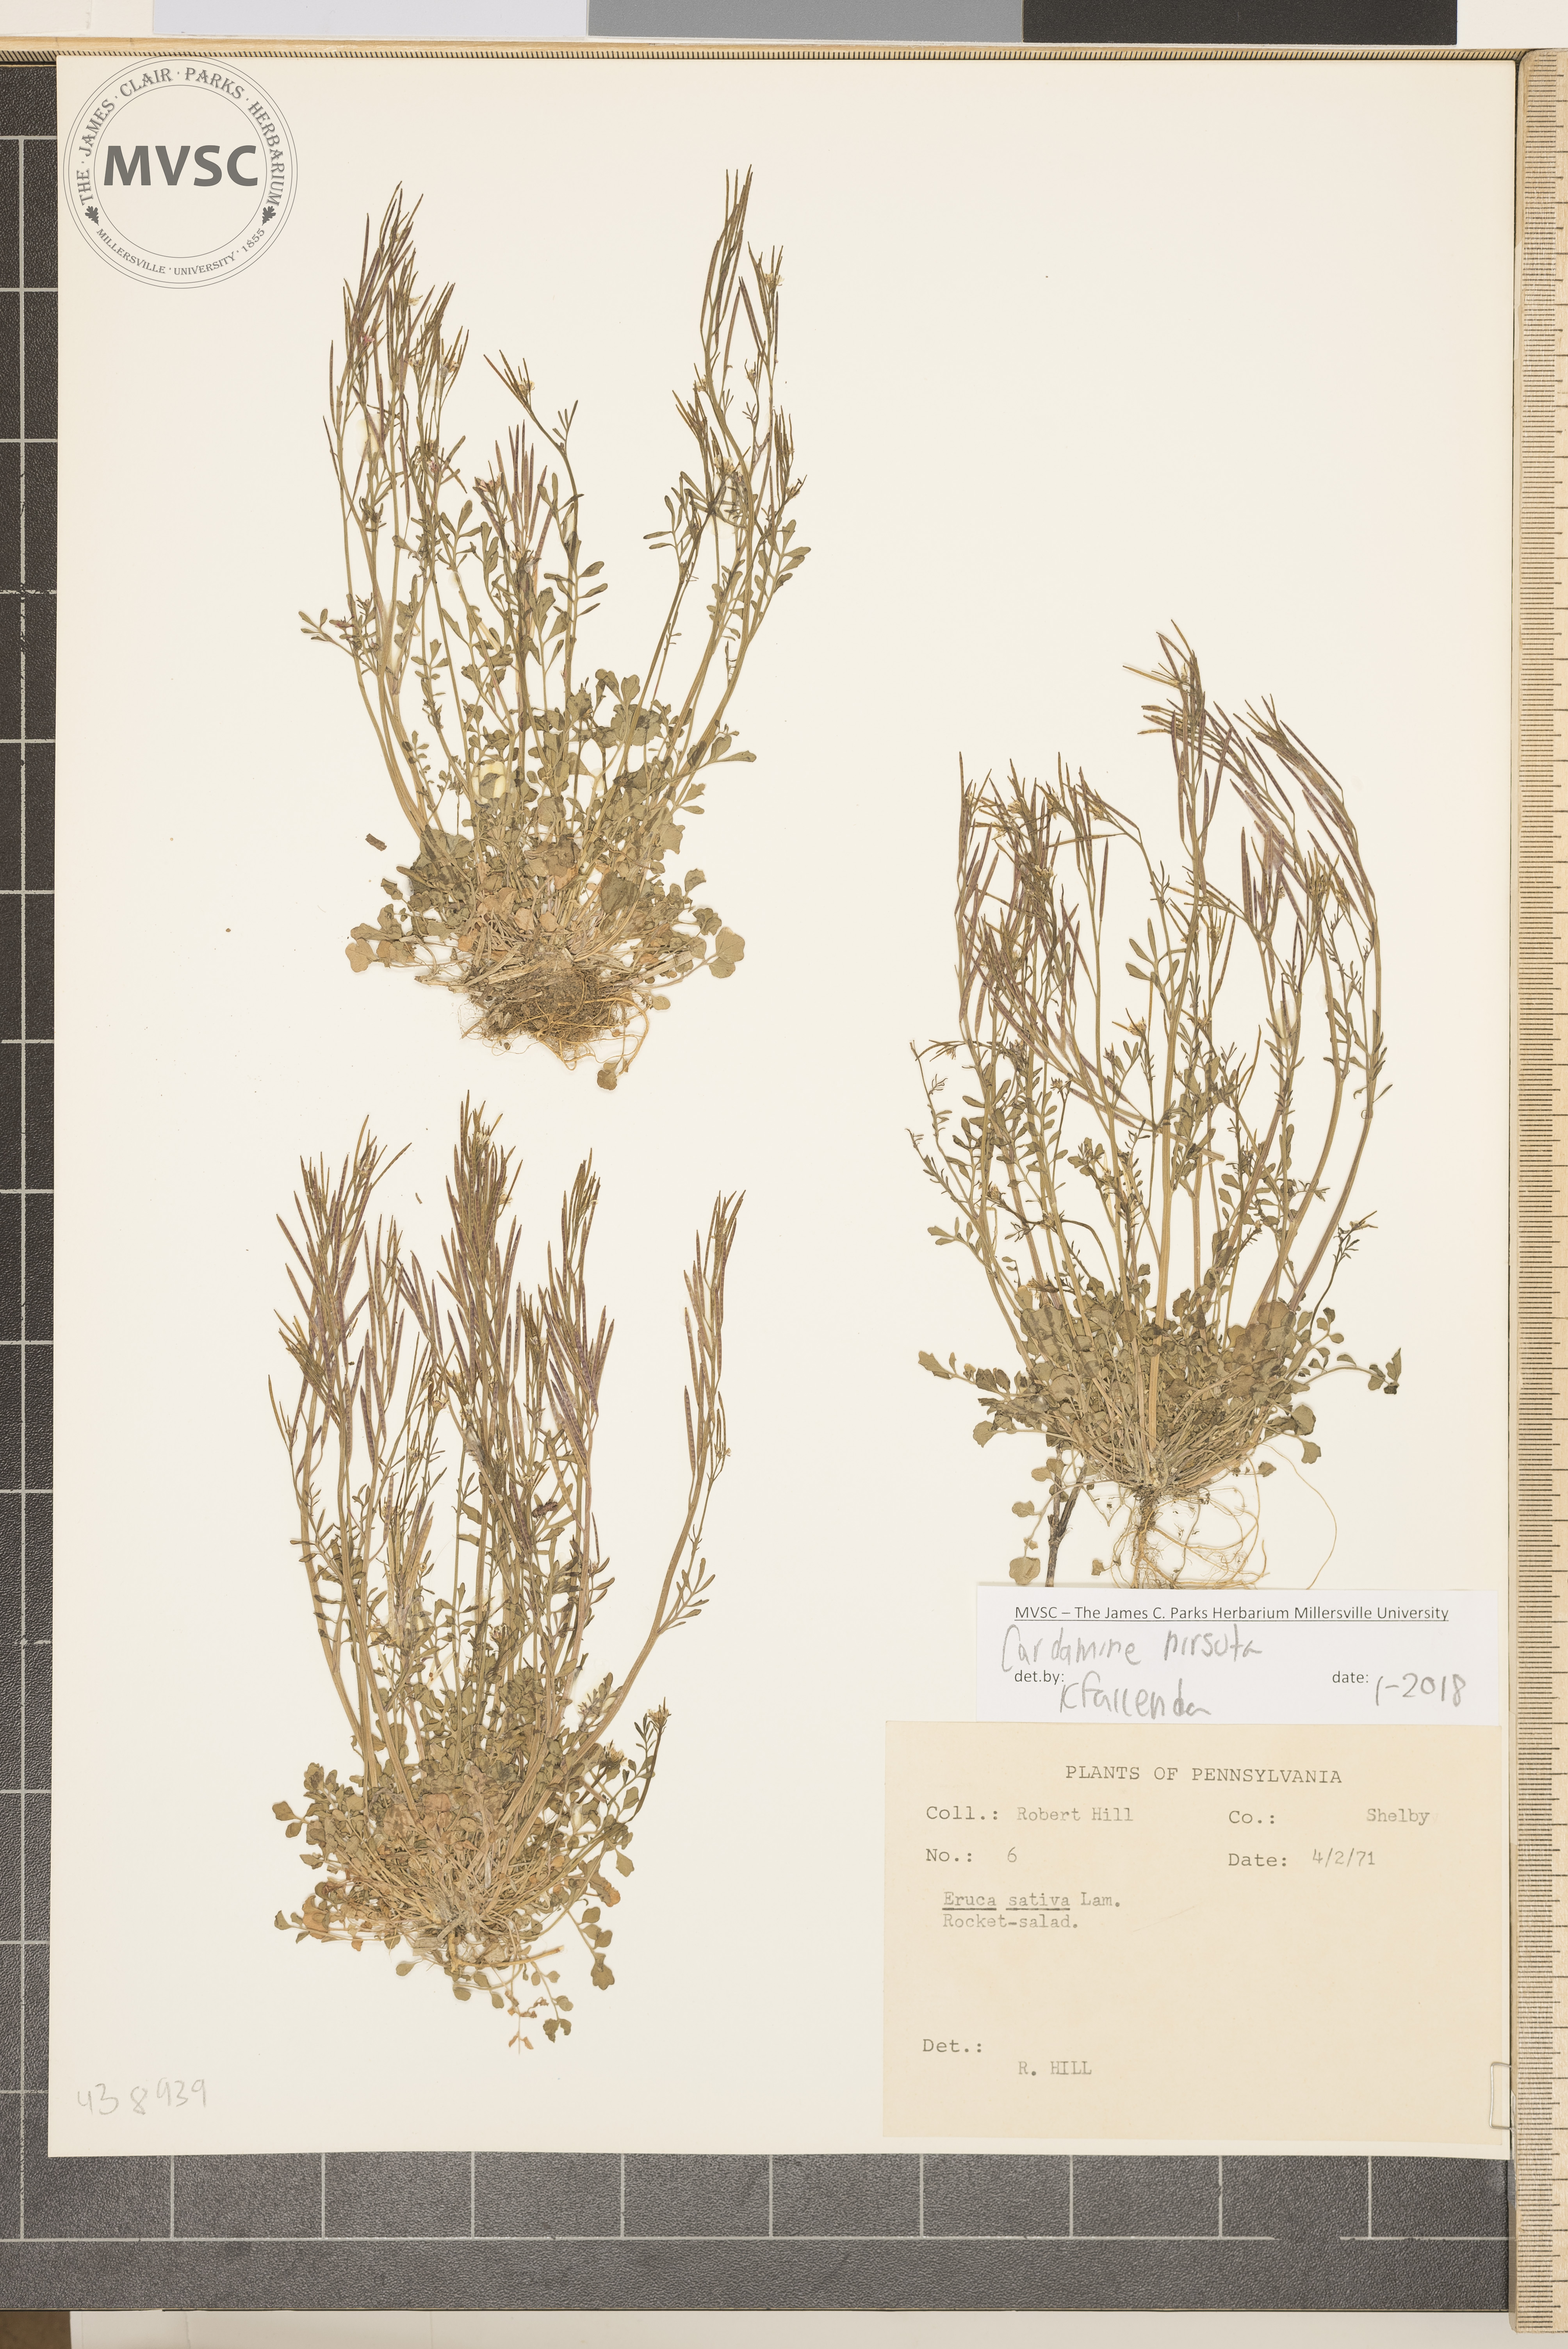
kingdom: Plantae
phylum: Tracheophyta
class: Magnoliopsida
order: Brassicales
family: Brassicaceae
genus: Cardamine
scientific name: Cardamine hirsuta
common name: Hairy bittercress
